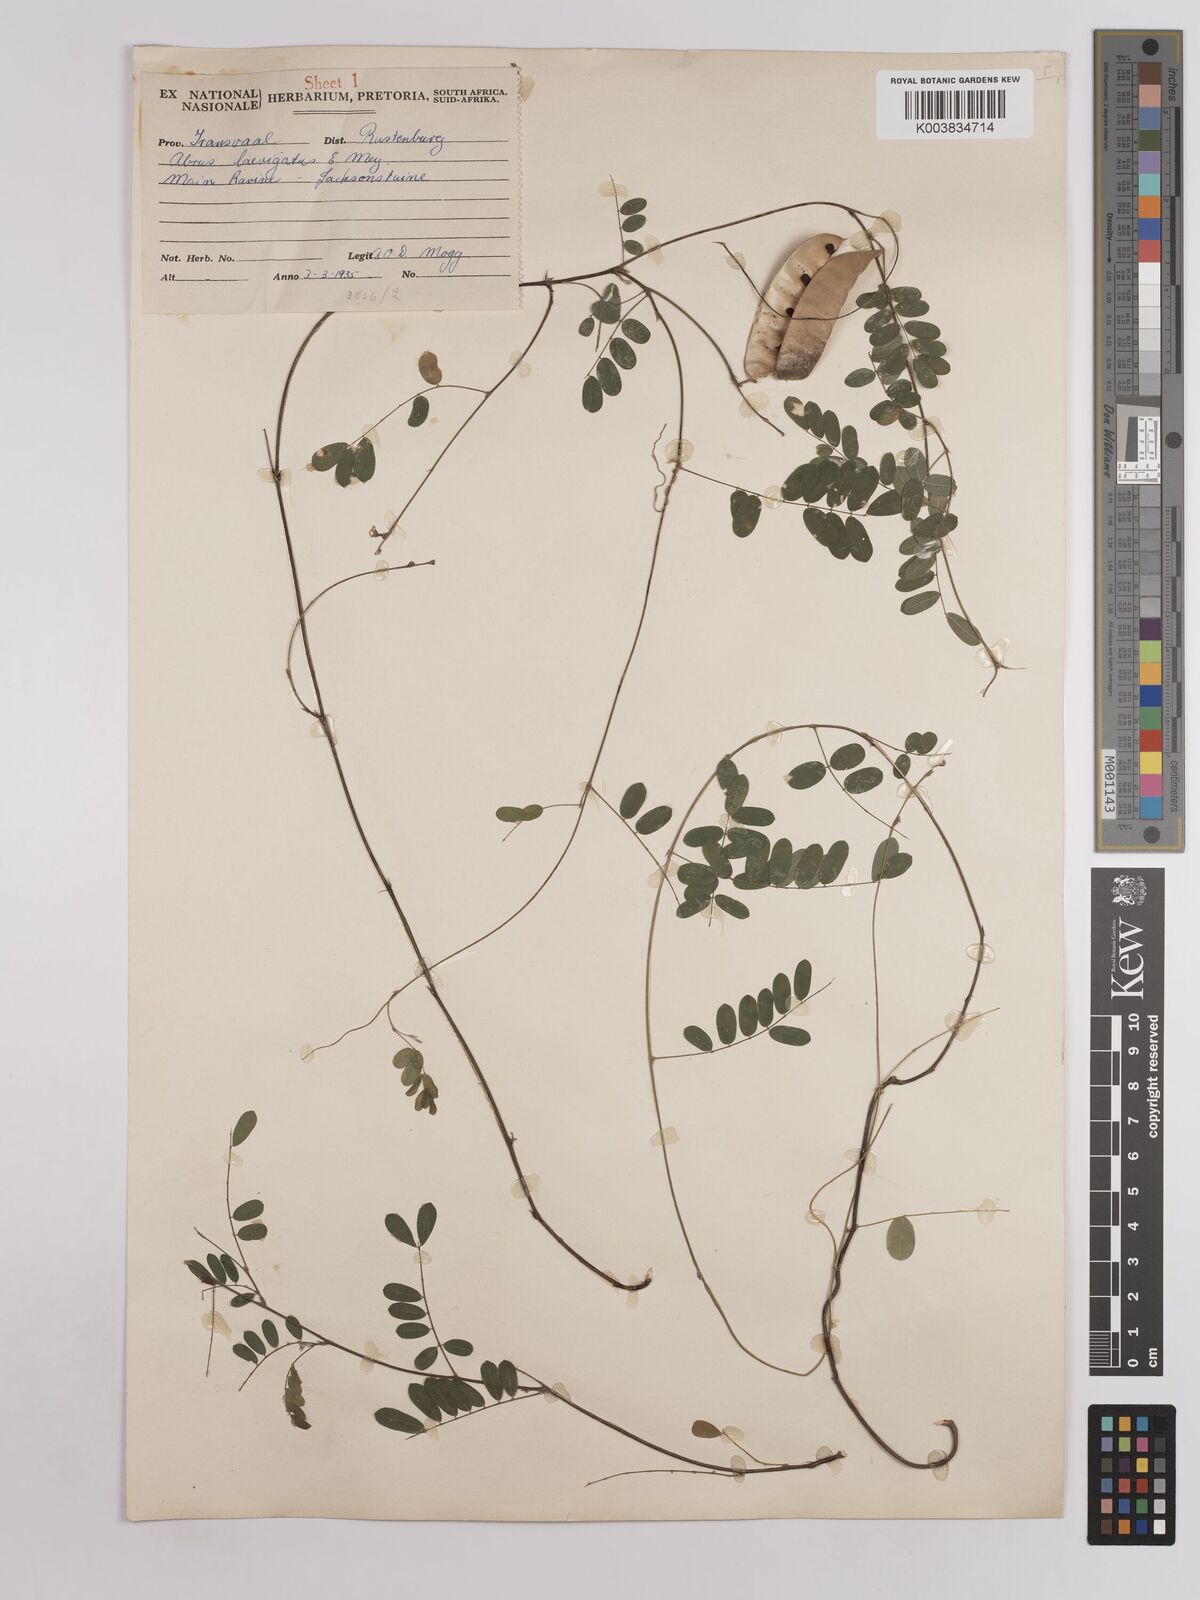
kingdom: Plantae
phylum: Tracheophyta
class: Magnoliopsida
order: Fabales
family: Fabaceae
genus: Abrus
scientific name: Abrus laevigatus
